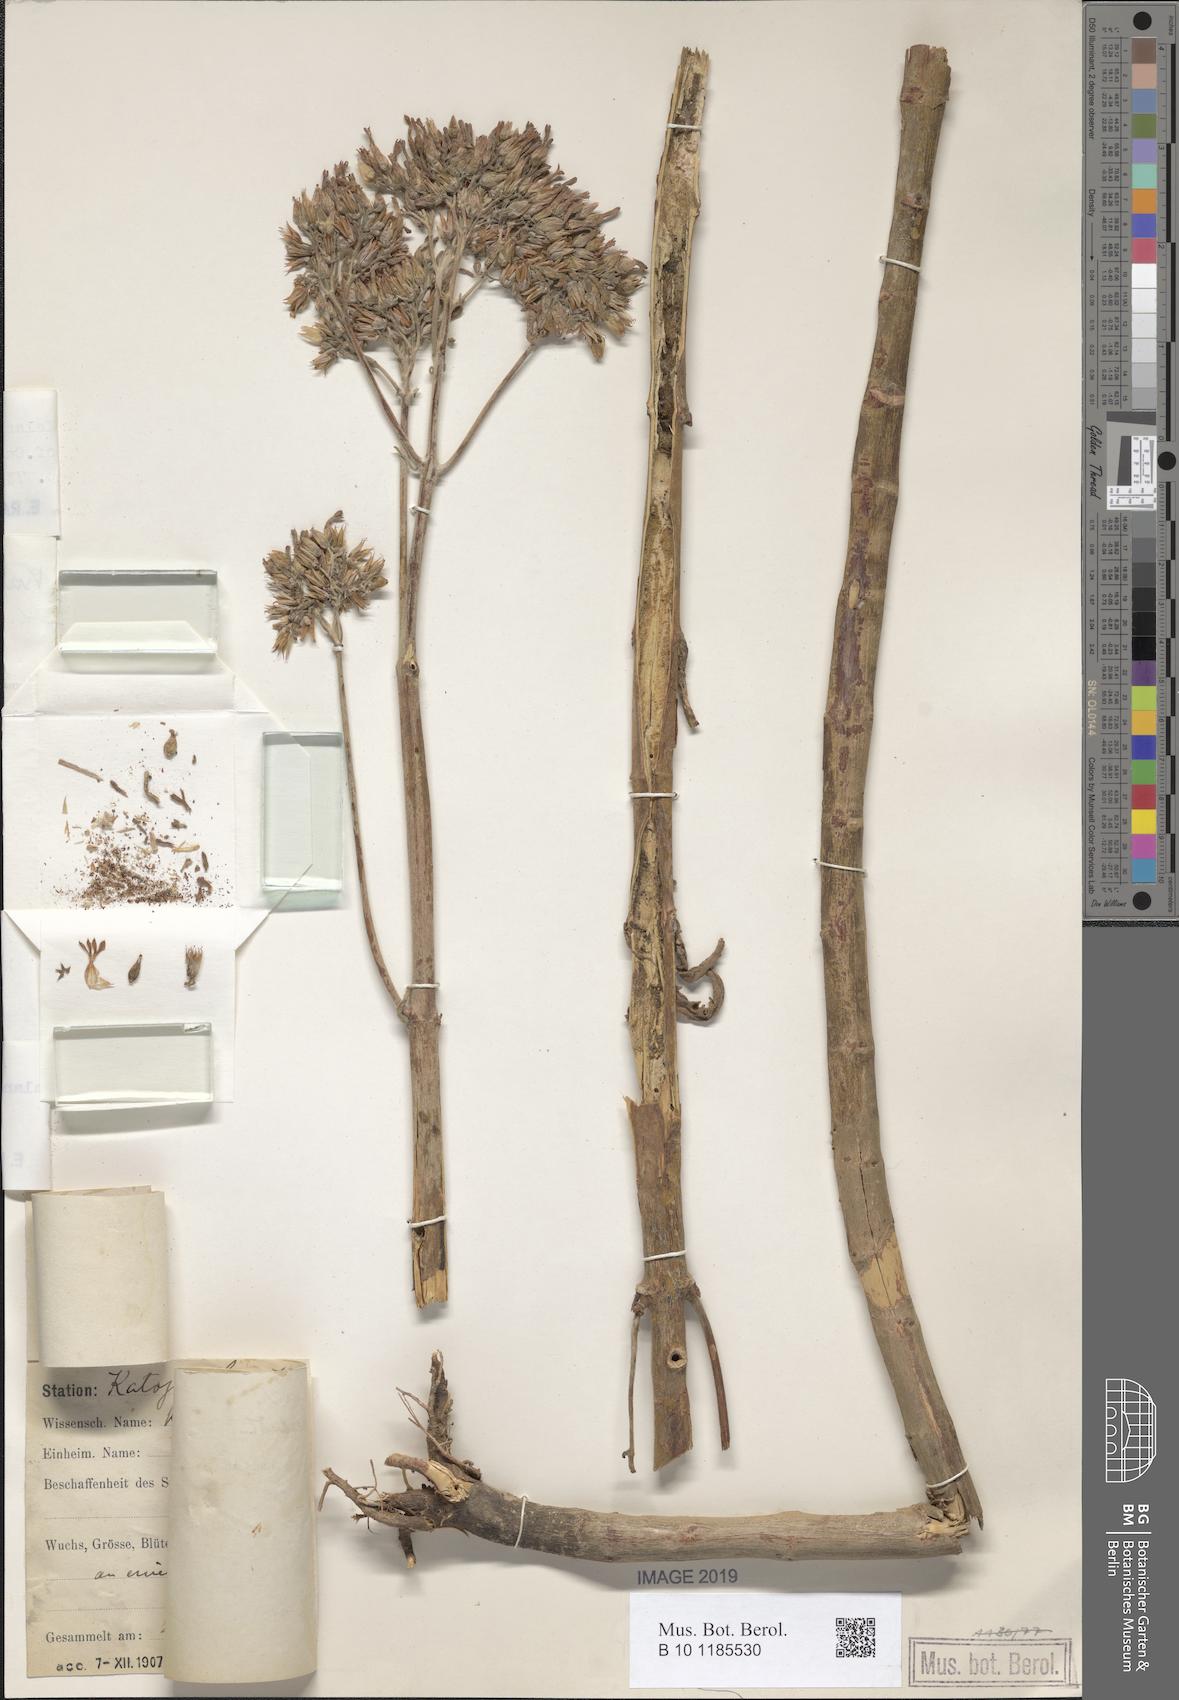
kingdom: Plantae
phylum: Tracheophyta
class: Magnoliopsida
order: Saxifragales
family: Crassulaceae
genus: Kalanchoe
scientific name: Kalanchoe laciniata
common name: Christmastree plant
